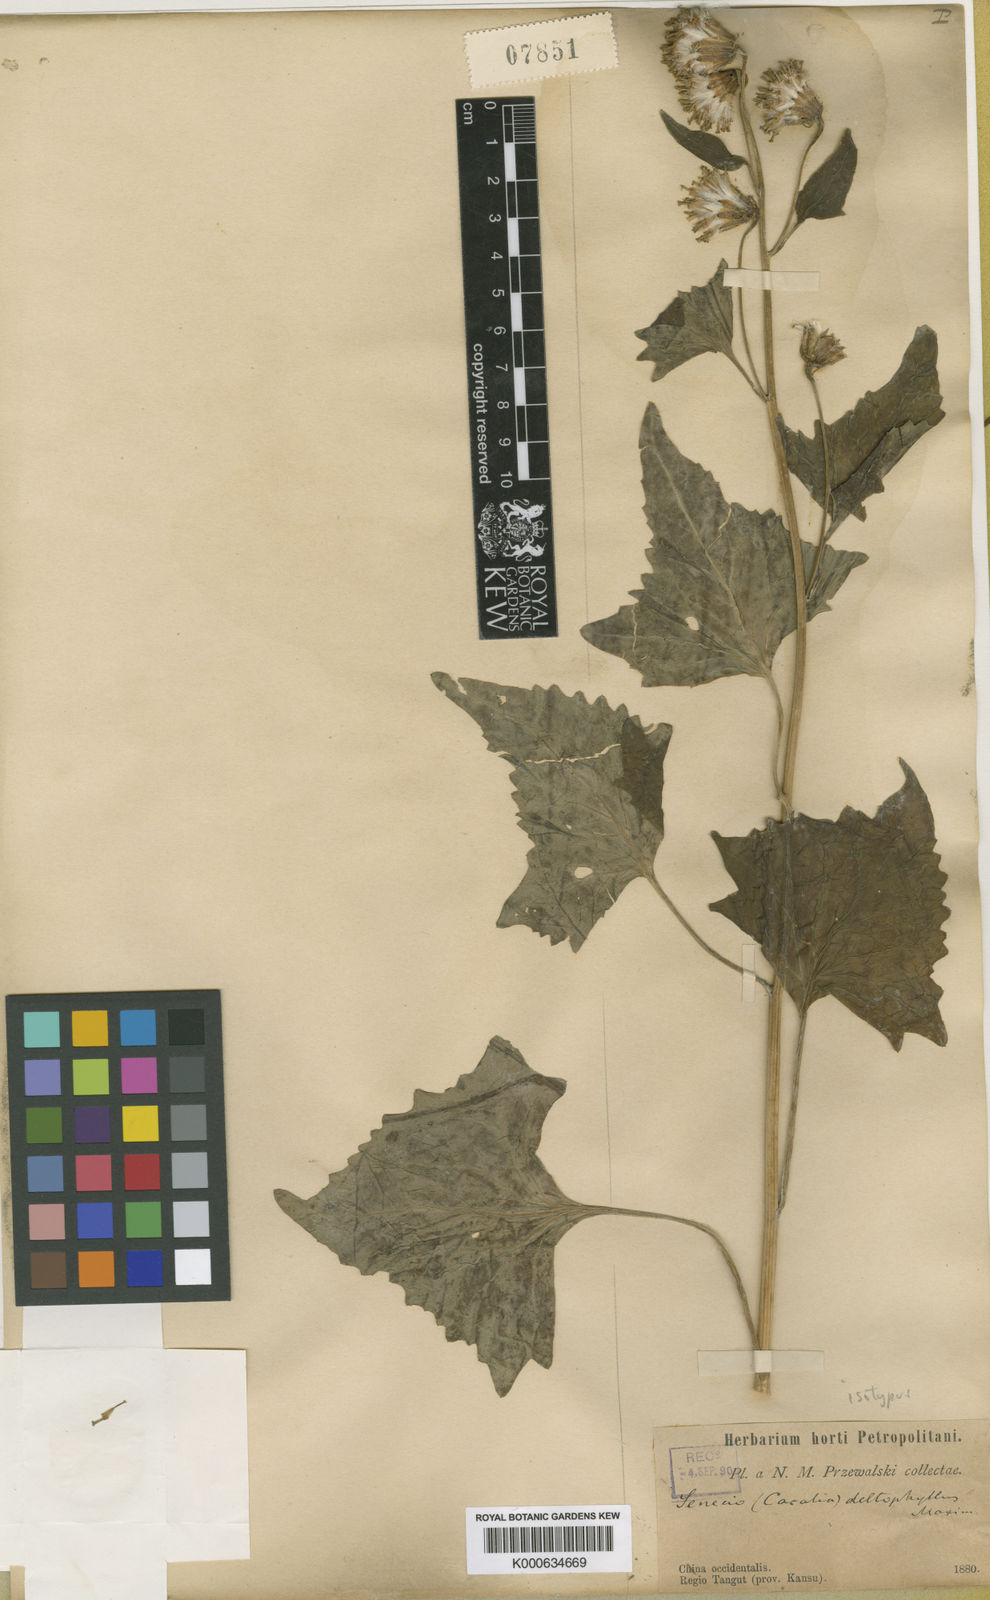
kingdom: Plantae
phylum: Tracheophyta
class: Magnoliopsida
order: Asterales
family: Asteraceae
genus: Parasenecio
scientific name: Parasenecio deltophyllus
